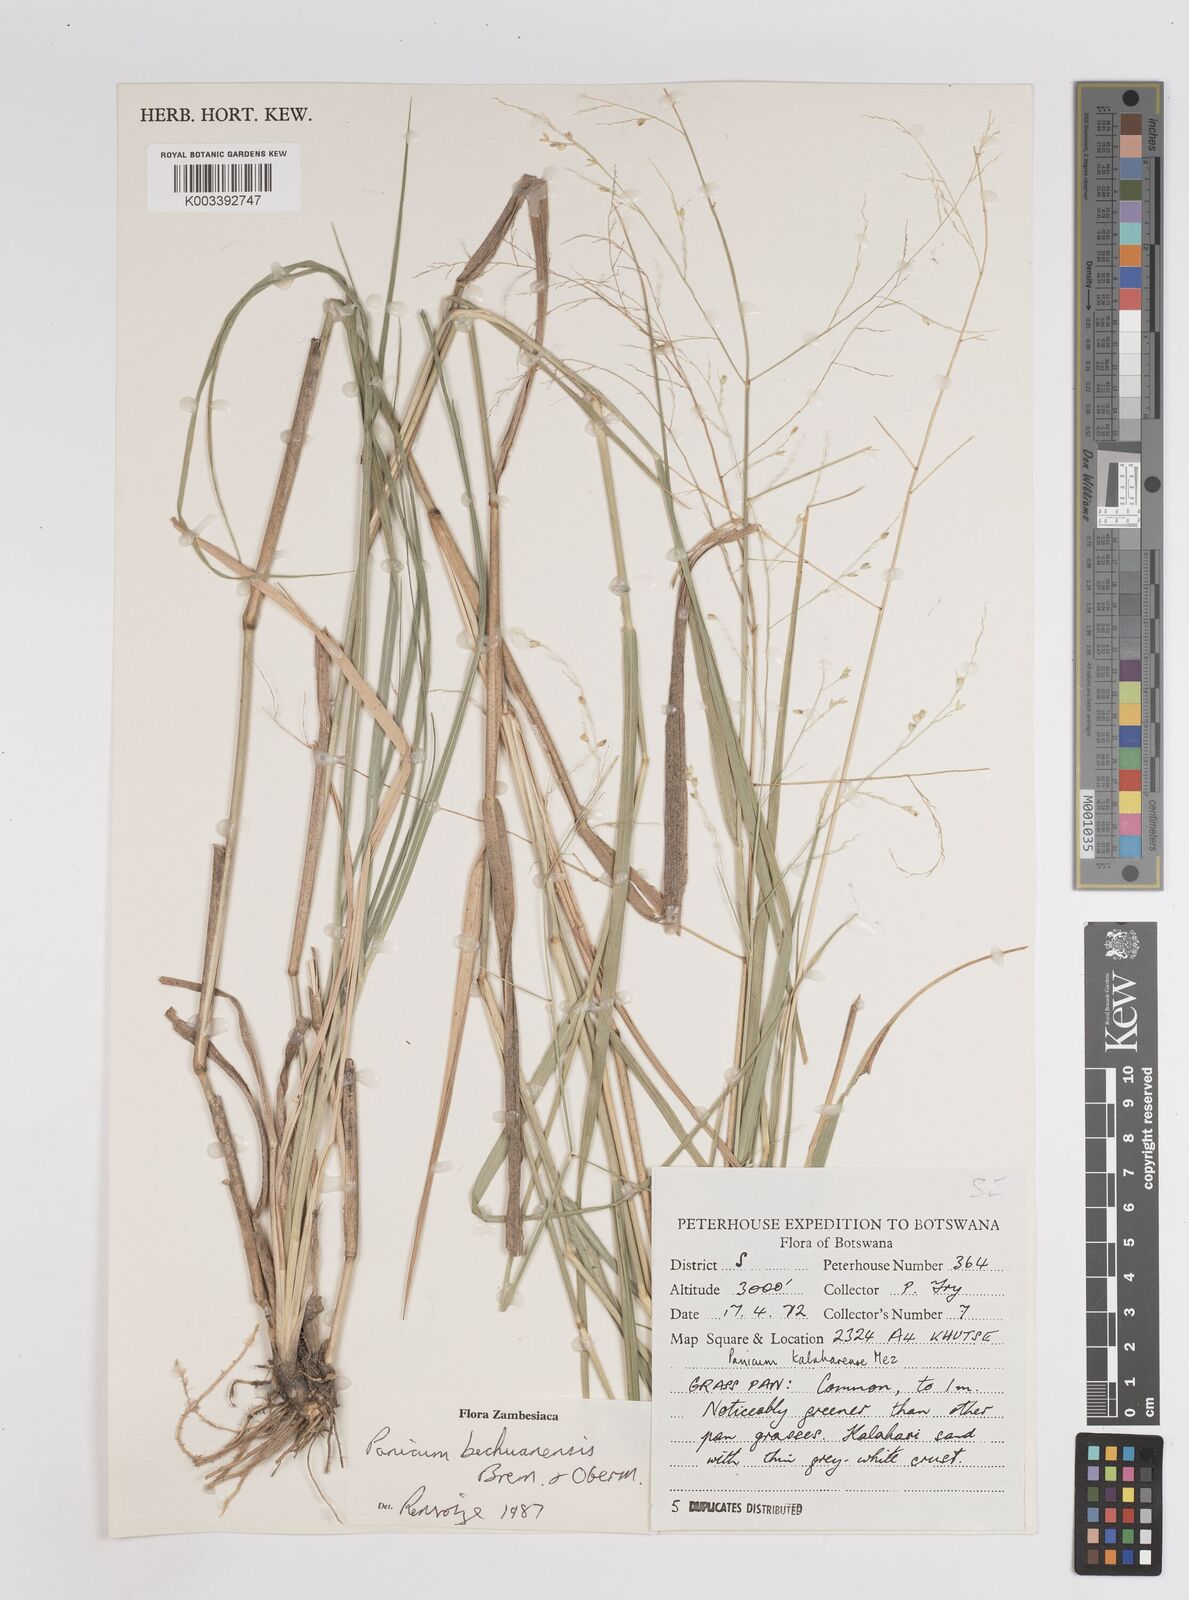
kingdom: Plantae
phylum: Tracheophyta
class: Liliopsida
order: Poales
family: Poaceae
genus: Panicum
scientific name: Panicum bechuanense
